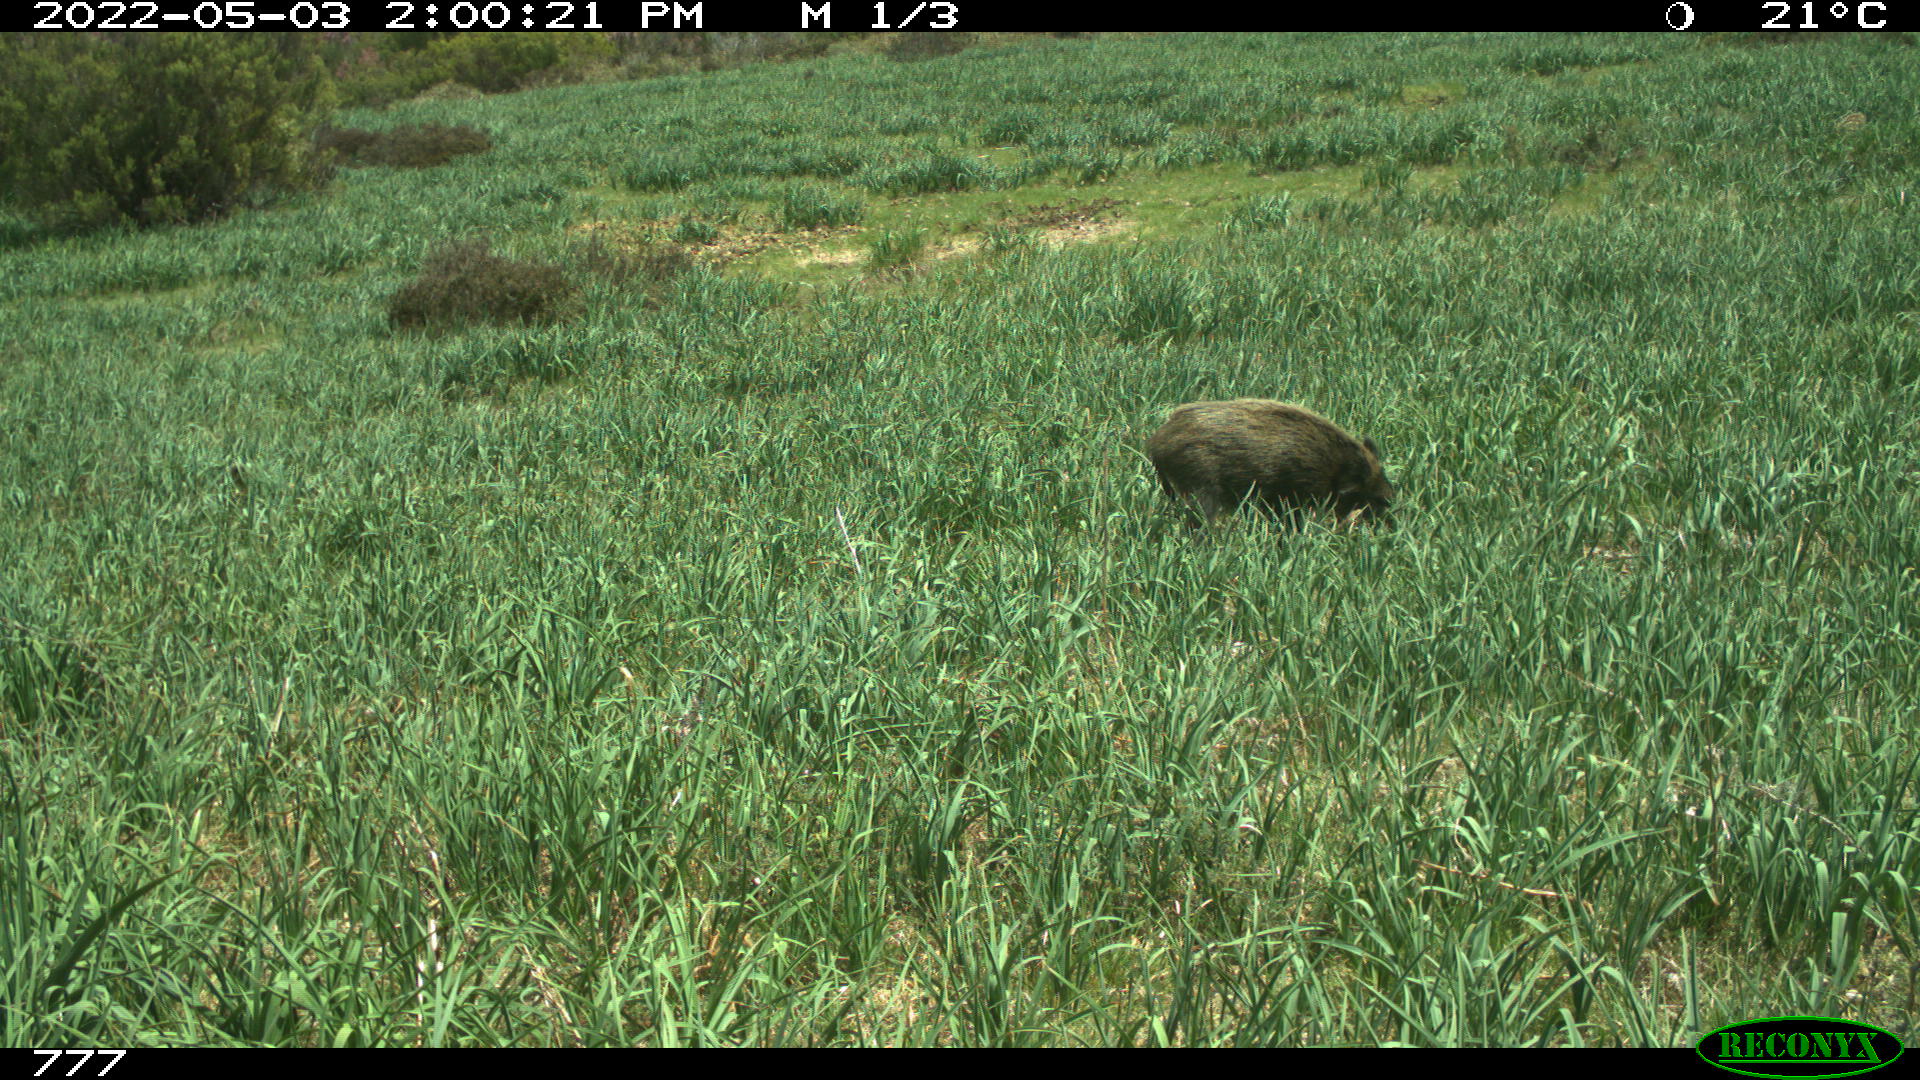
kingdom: Animalia
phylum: Chordata
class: Mammalia
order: Artiodactyla
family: Suidae
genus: Sus
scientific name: Sus scrofa
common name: Wild boar
